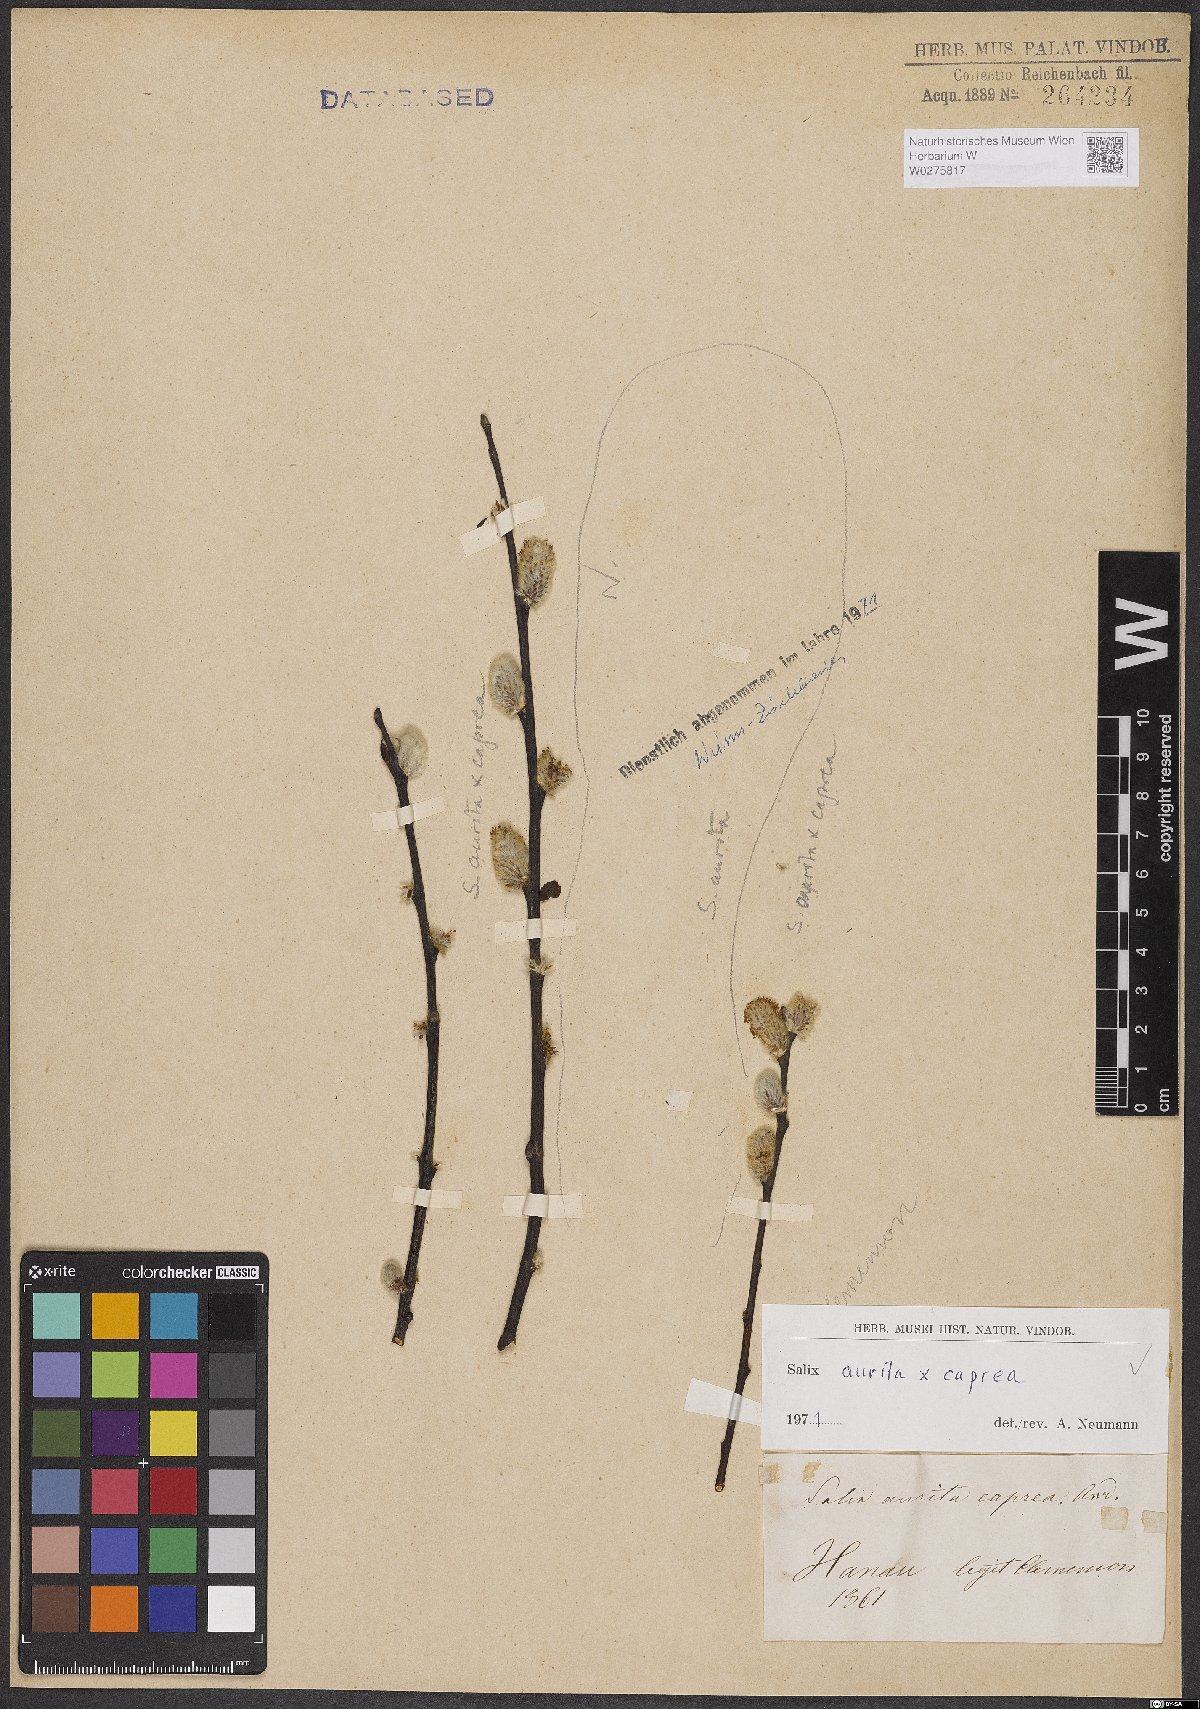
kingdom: Plantae
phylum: Tracheophyta
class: Magnoliopsida
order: Malpighiales
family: Salicaceae
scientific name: Salicaceae
